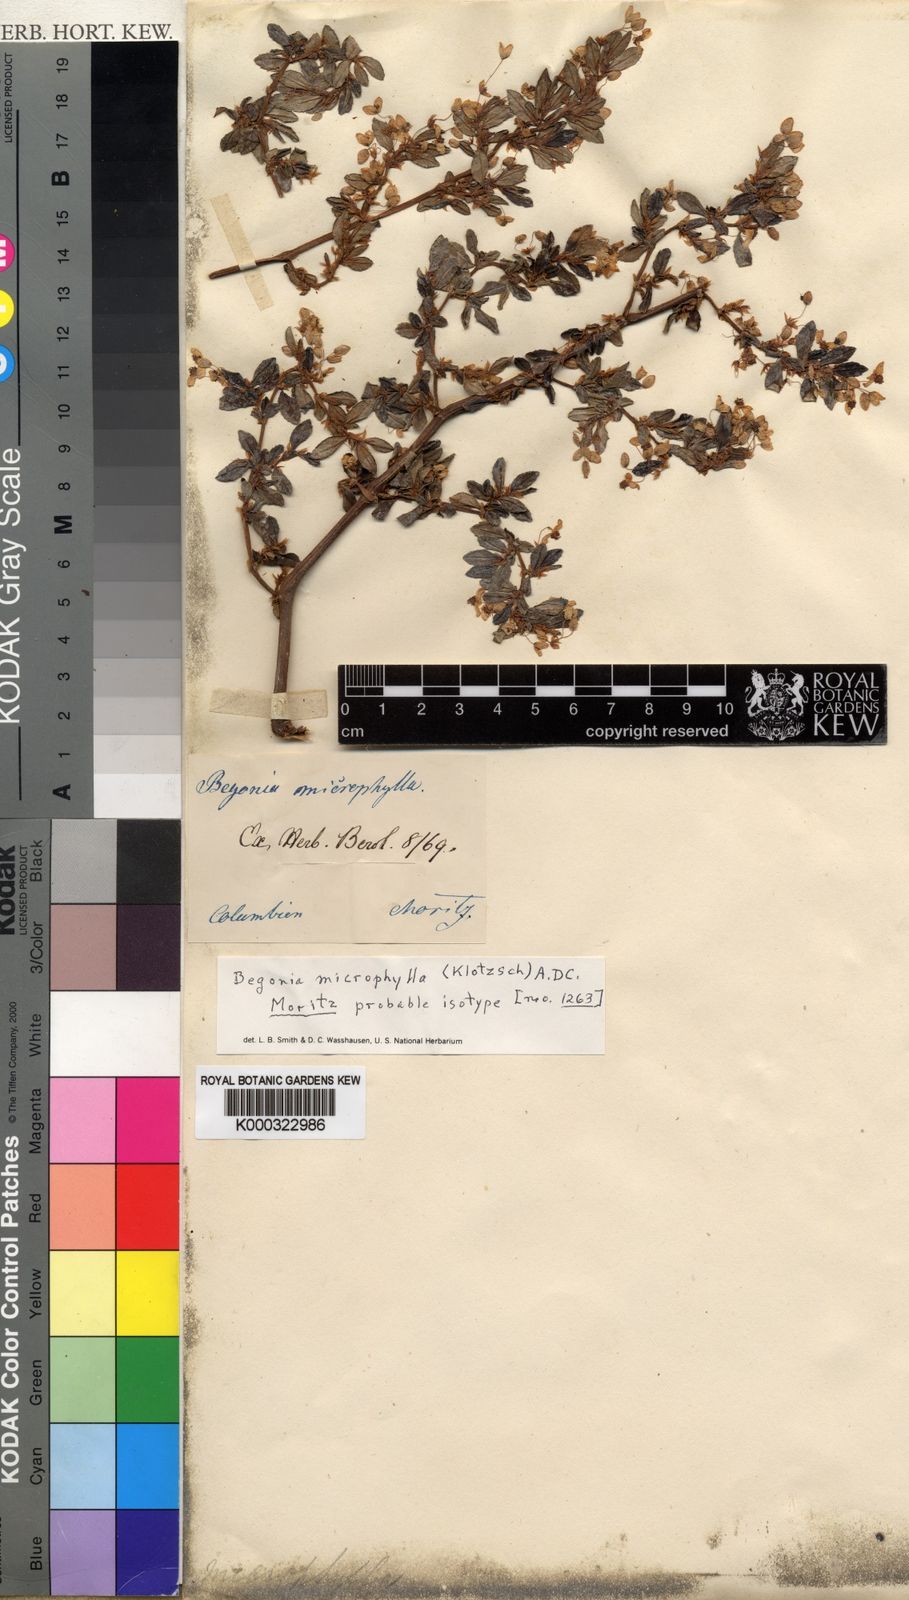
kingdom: Plantae
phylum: Tracheophyta
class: Magnoliopsida
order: Cucurbitales
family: Begoniaceae
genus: Begonia
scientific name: Begonia foliosa
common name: Fern begonia
